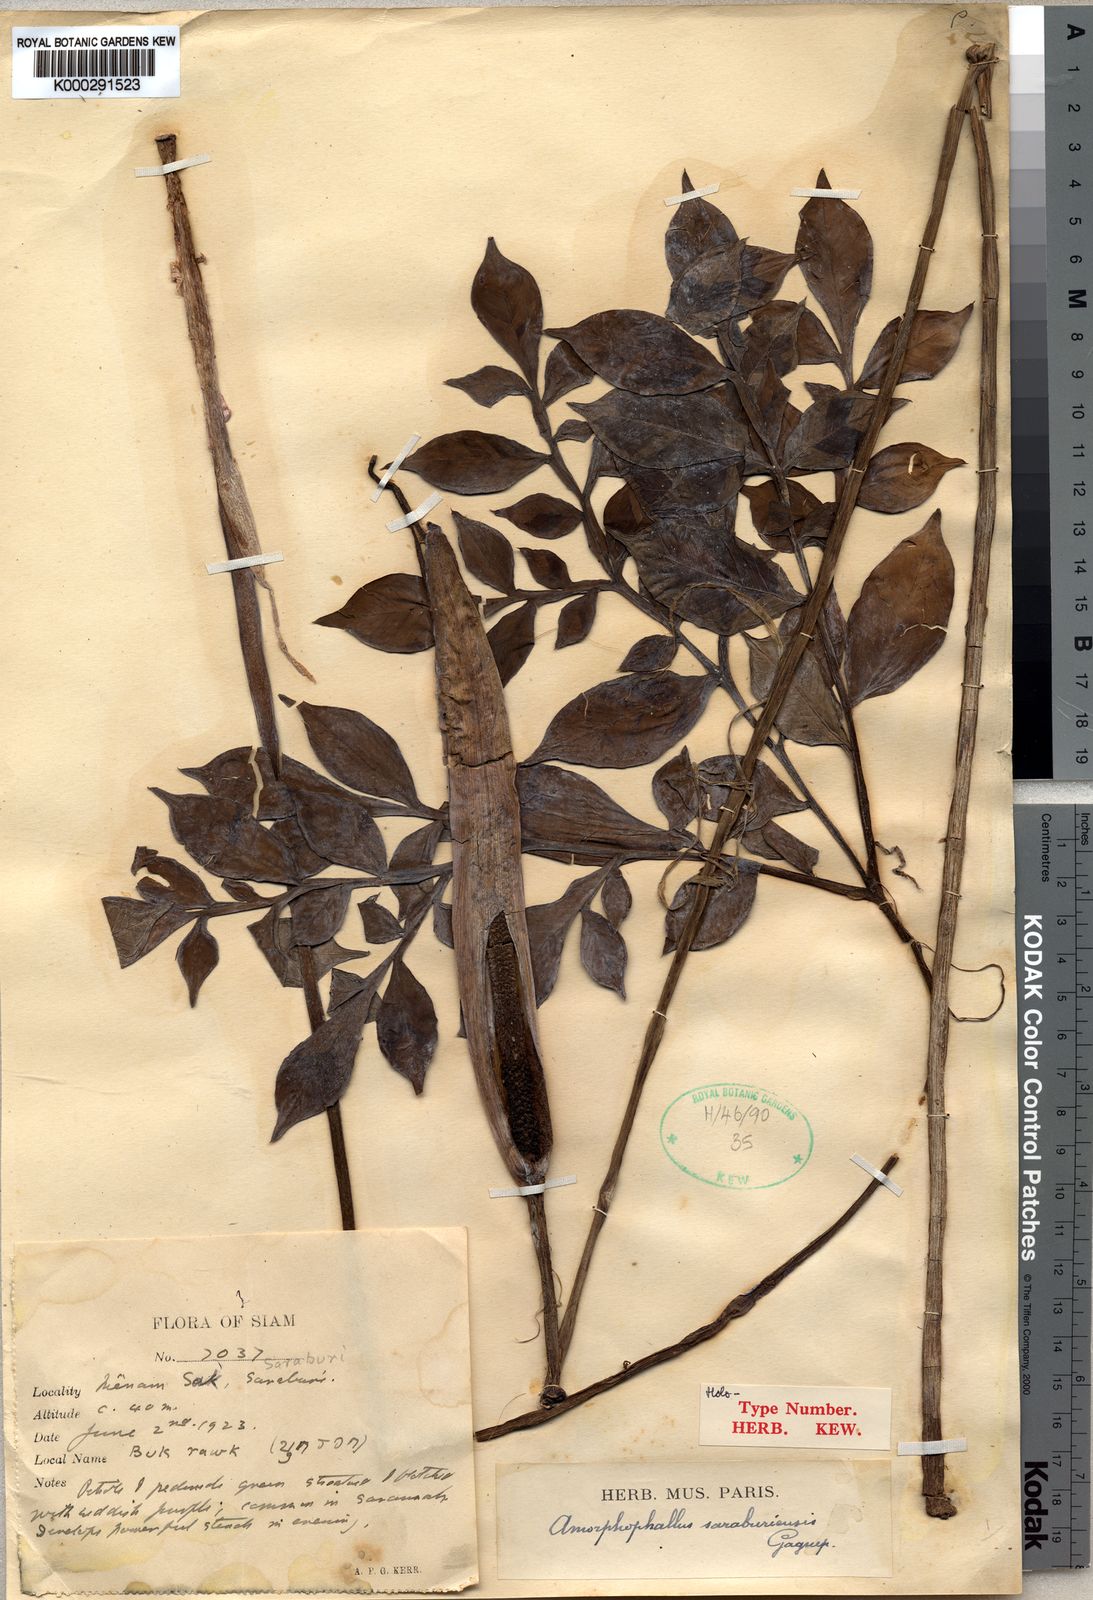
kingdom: Plantae
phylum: Tracheophyta
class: Liliopsida
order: Alismatales
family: Araceae
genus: Amorphophallus
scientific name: Amorphophallus
